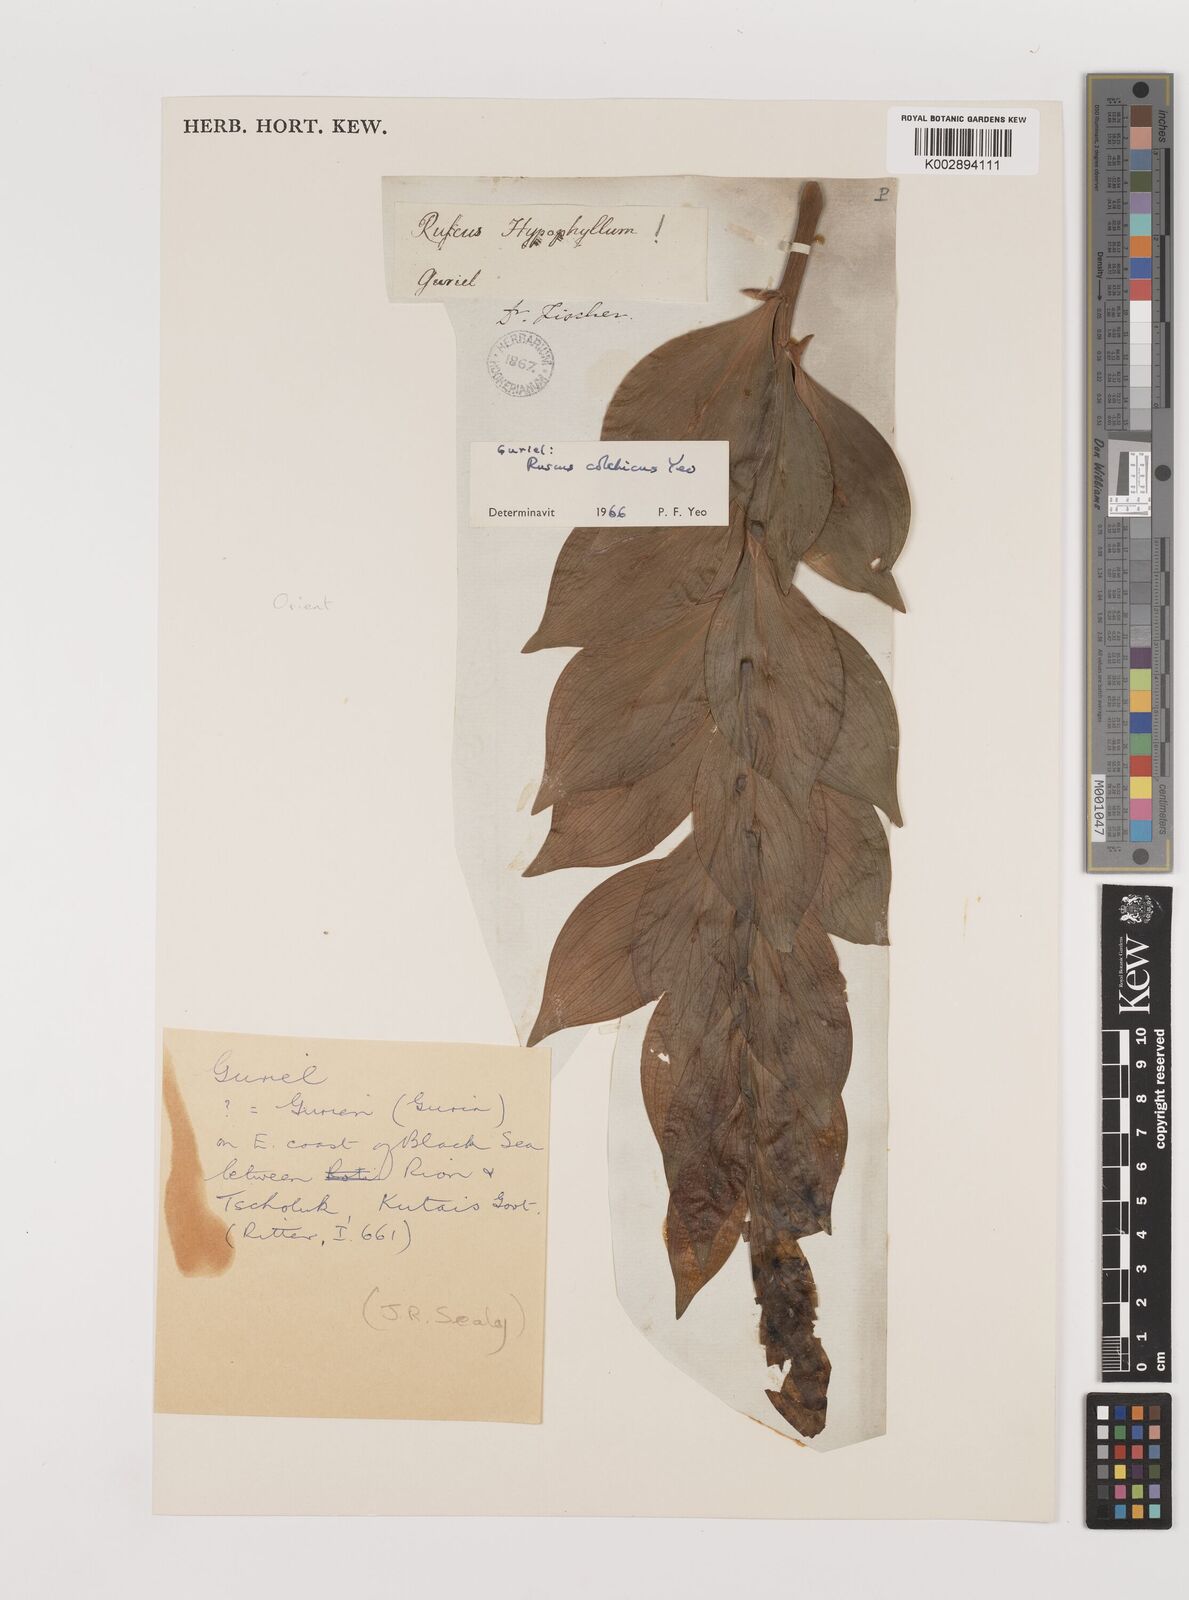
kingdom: Plantae
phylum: Tracheophyta
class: Liliopsida
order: Asparagales
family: Asparagaceae
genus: Ruscus
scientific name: Ruscus colchicus
